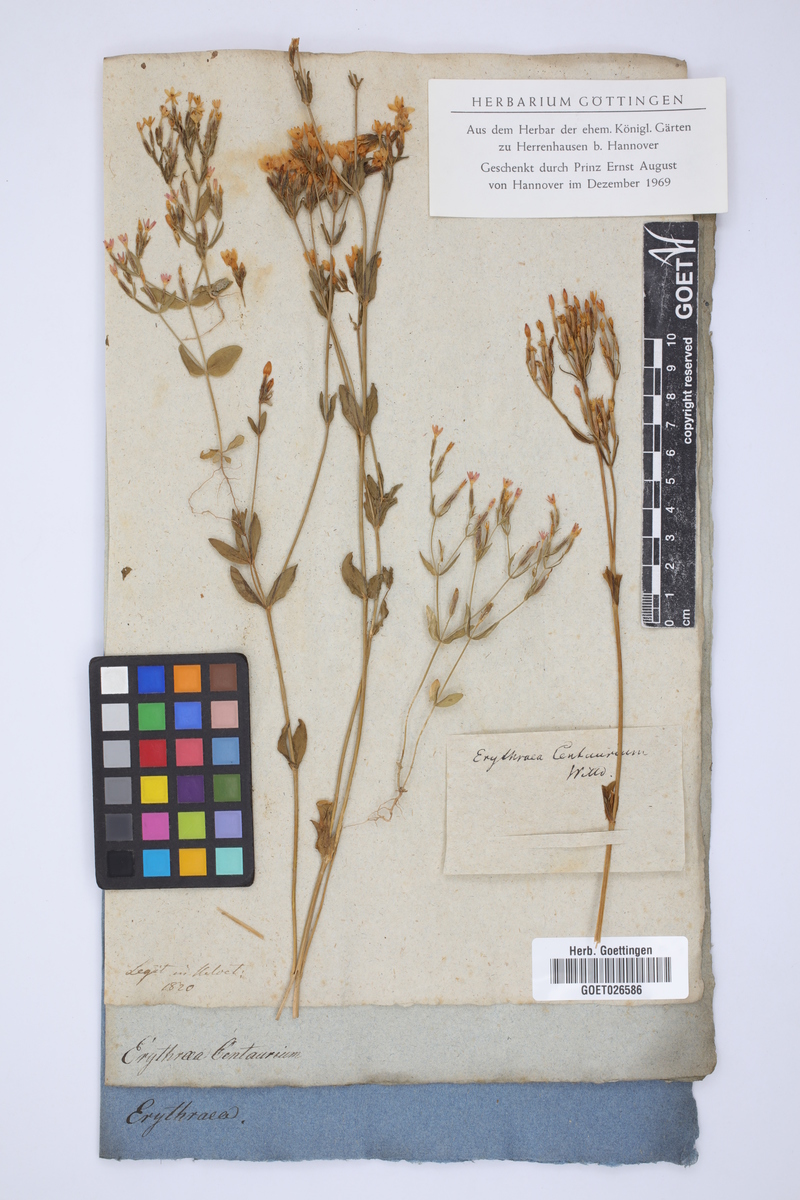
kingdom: Plantae
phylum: Tracheophyta
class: Magnoliopsida
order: Gentianales
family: Gentianaceae
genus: Centaurium
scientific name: Centaurium erythraea
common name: Common centaury
